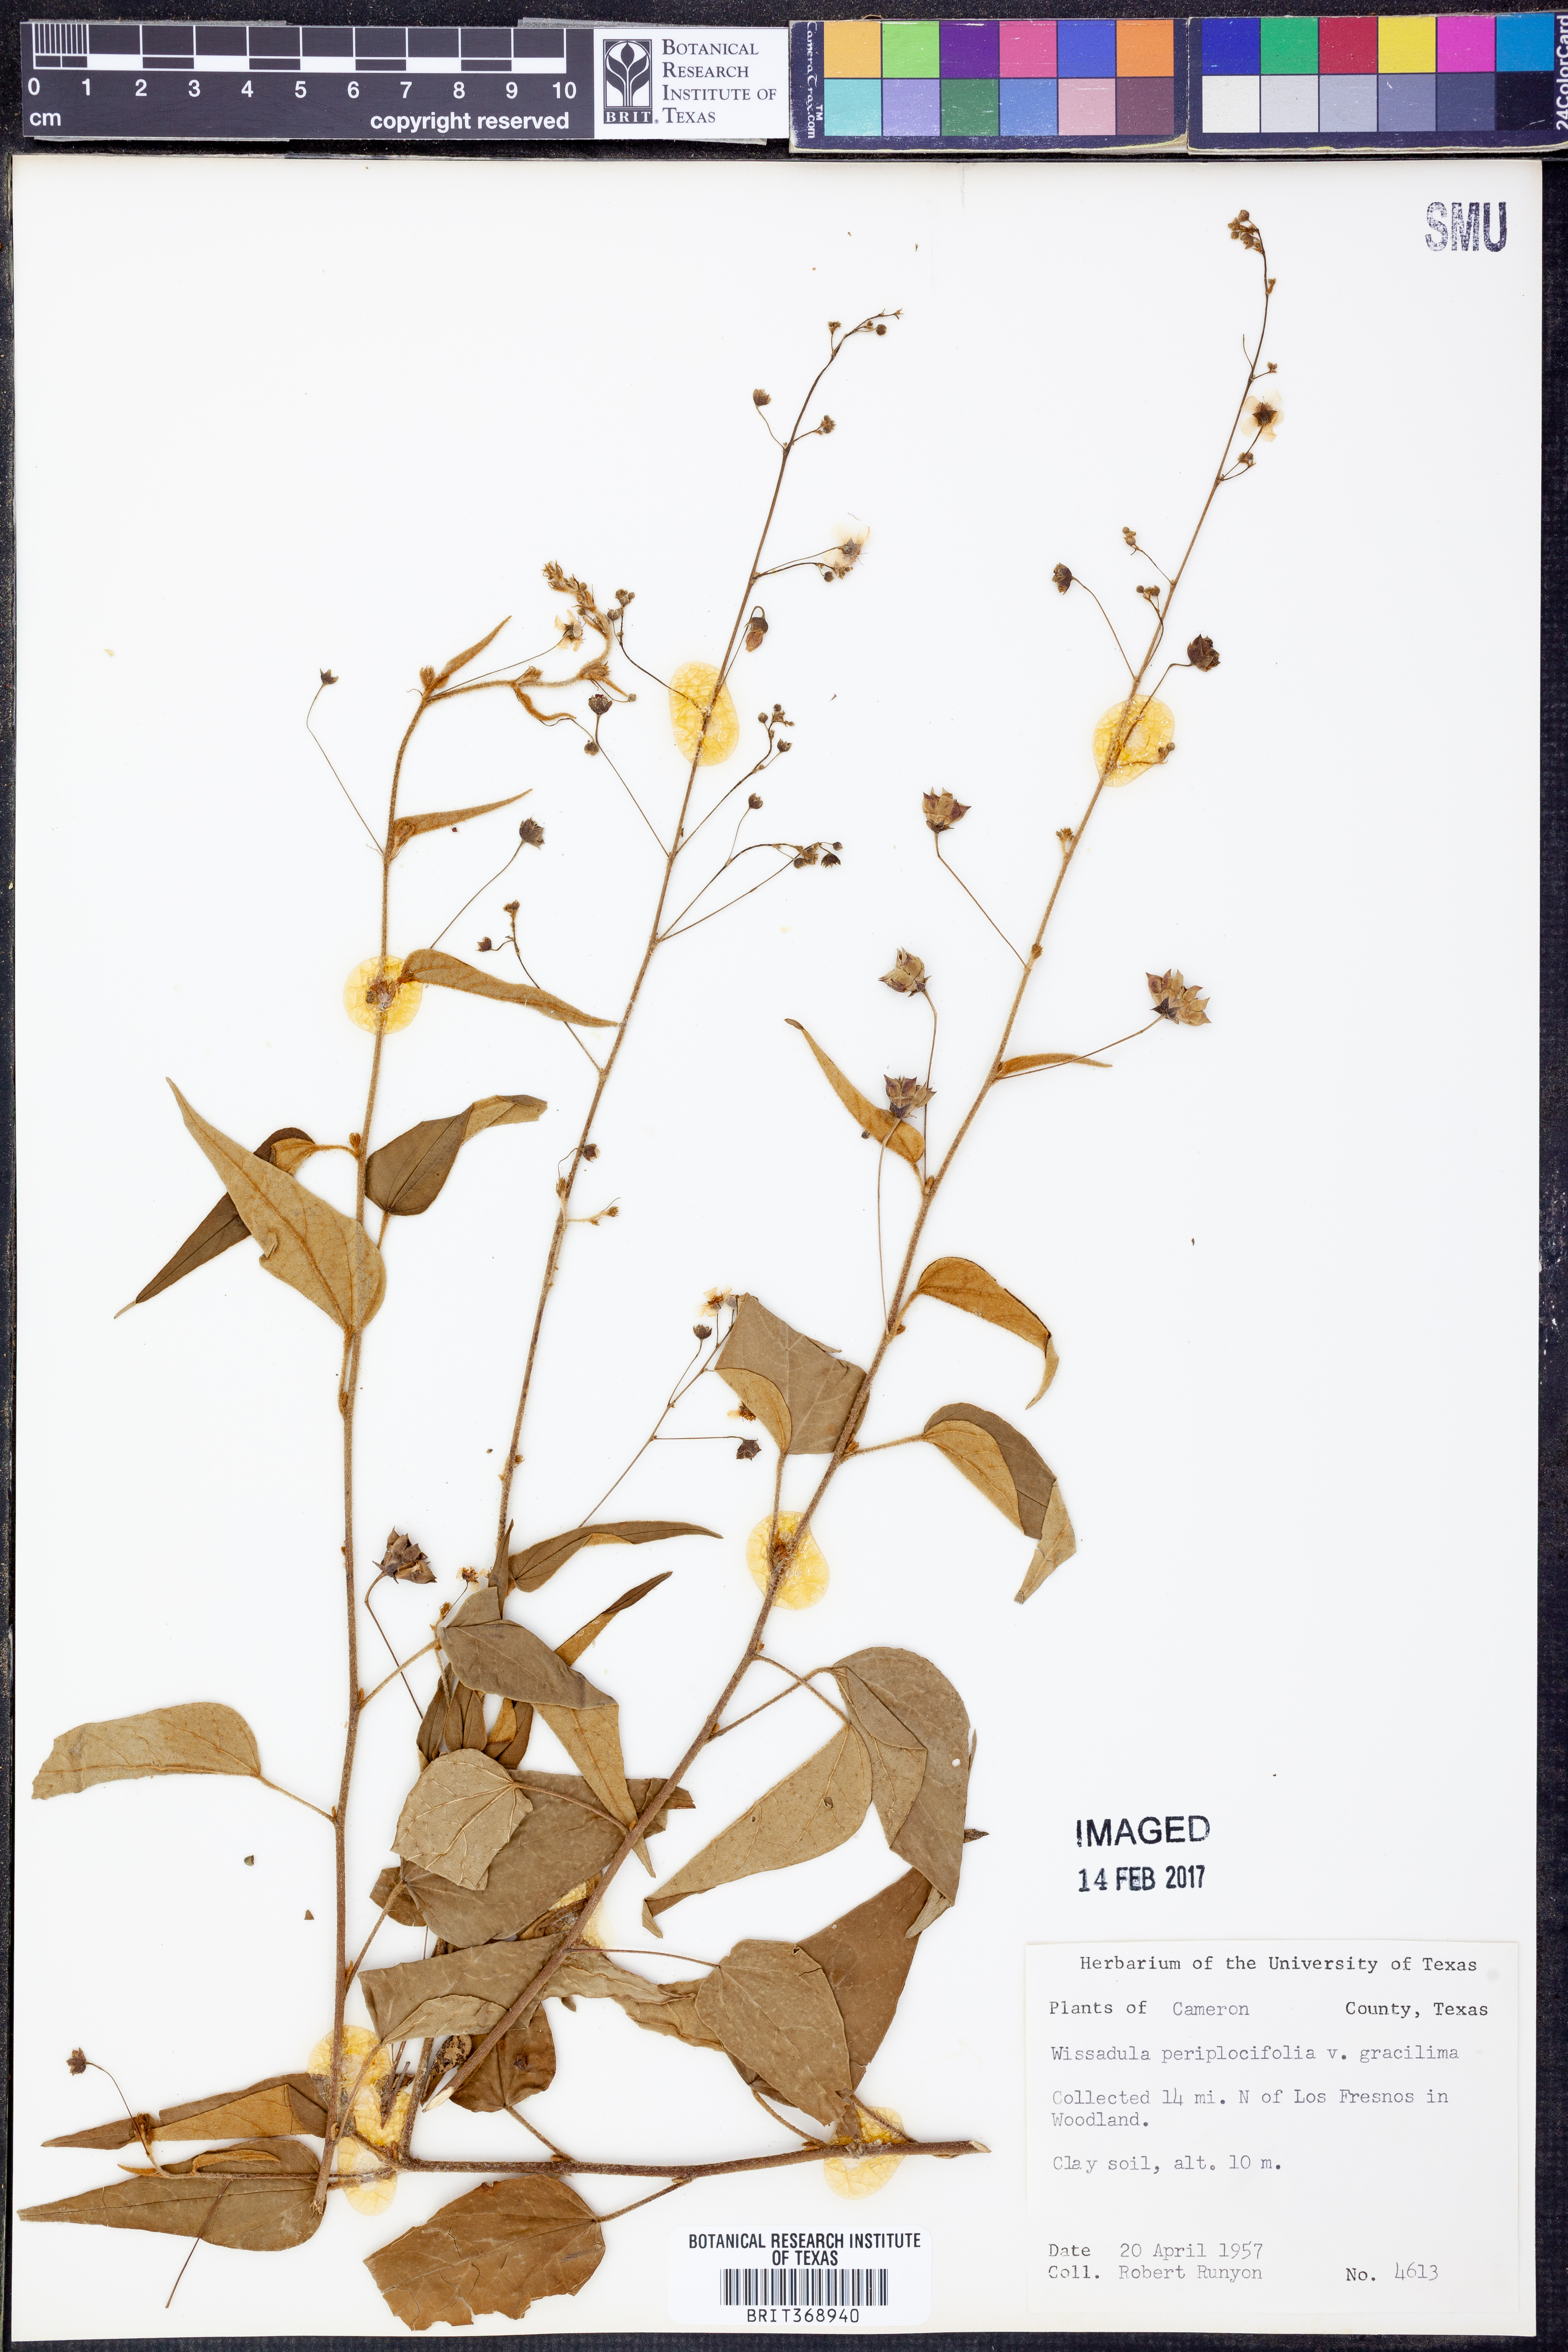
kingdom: Plantae
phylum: Tracheophyta
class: Magnoliopsida
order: Malvales
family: Malvaceae
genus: Wissadula
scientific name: Wissadula periplocifolia
